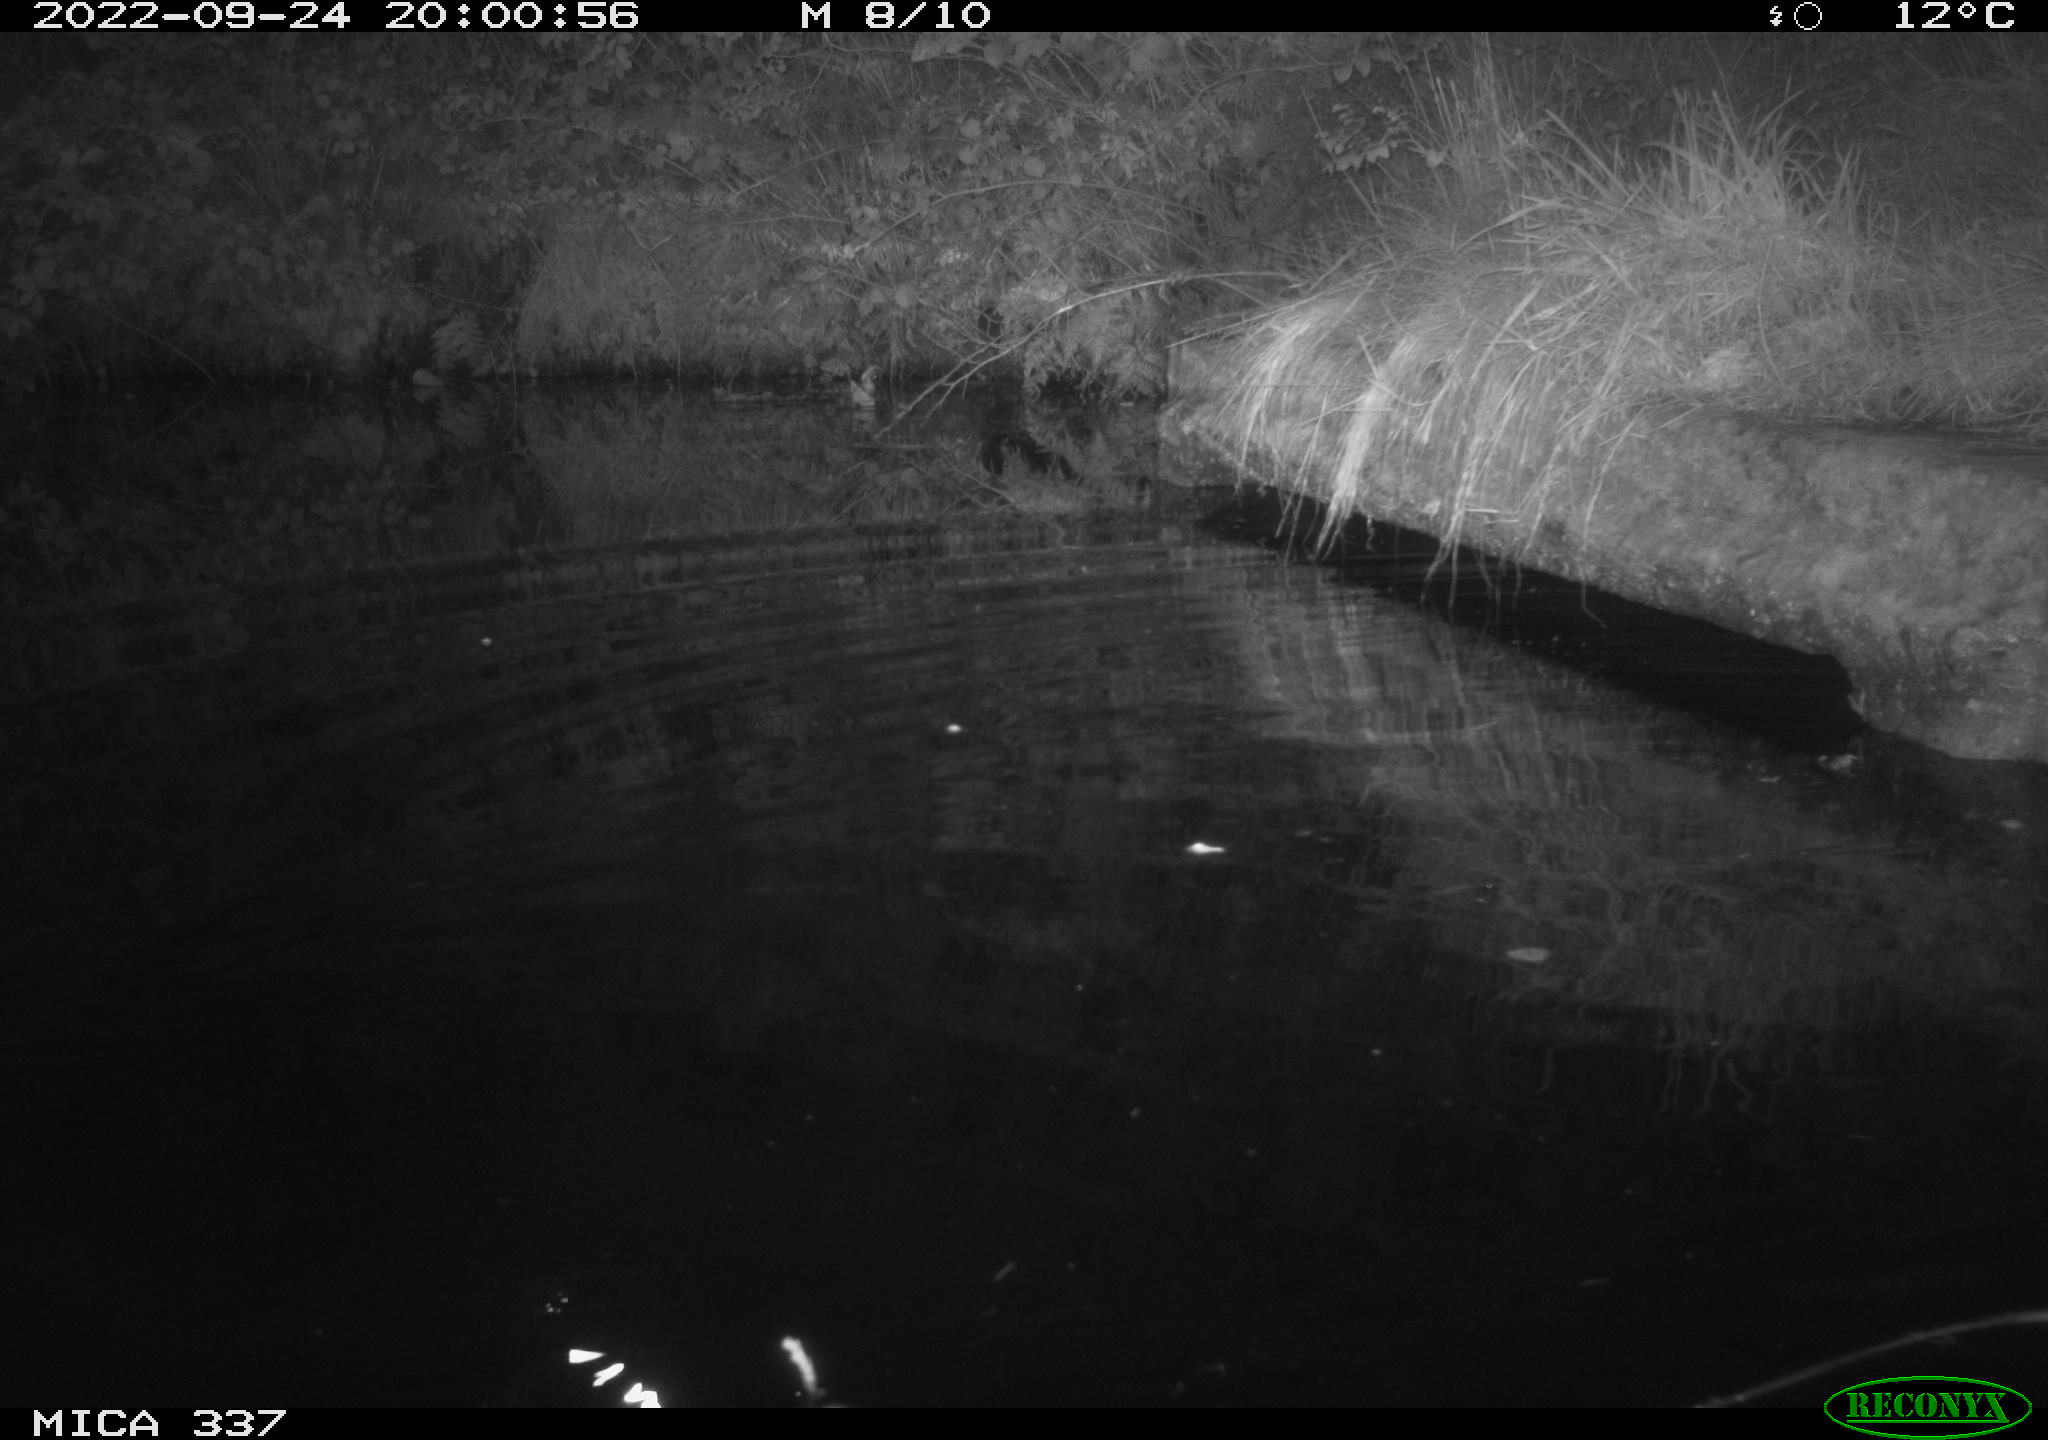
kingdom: Animalia
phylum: Chordata
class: Mammalia
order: Rodentia
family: Muridae
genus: Rattus
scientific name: Rattus norvegicus
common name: Brown rat
